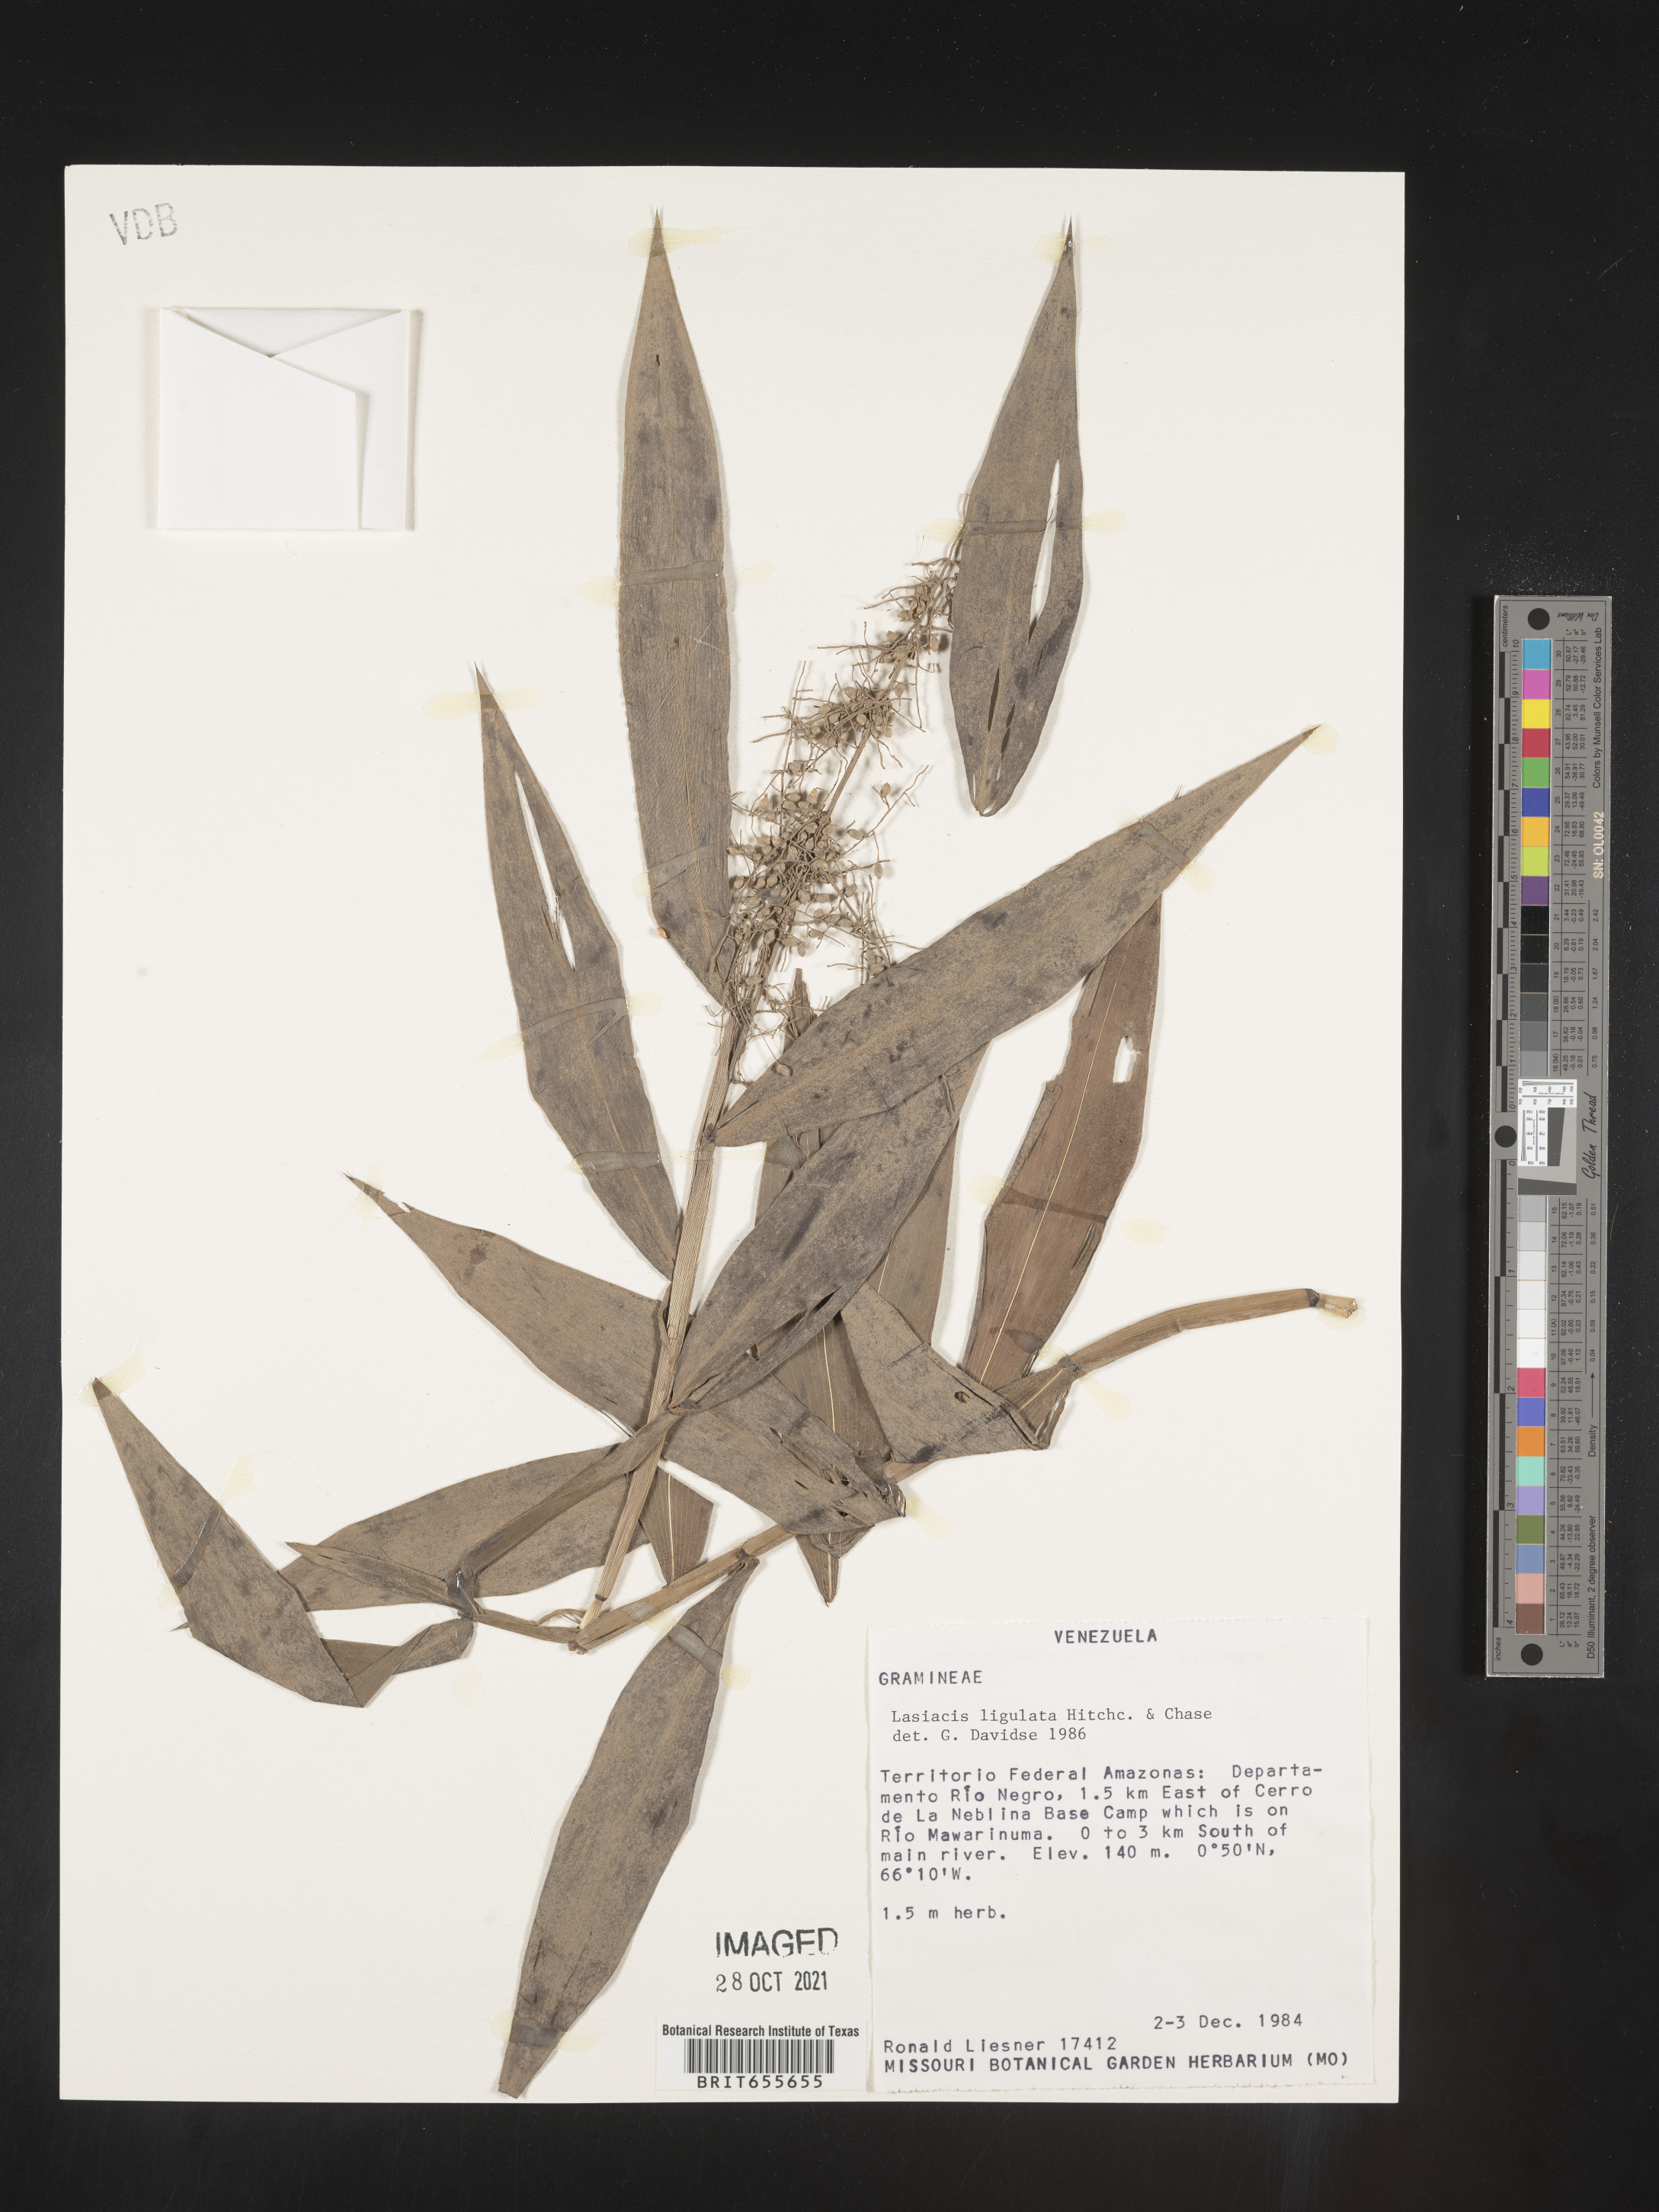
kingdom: Plantae
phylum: Tracheophyta
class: Liliopsida
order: Poales
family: Poaceae
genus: Lasiacis
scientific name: Lasiacis
